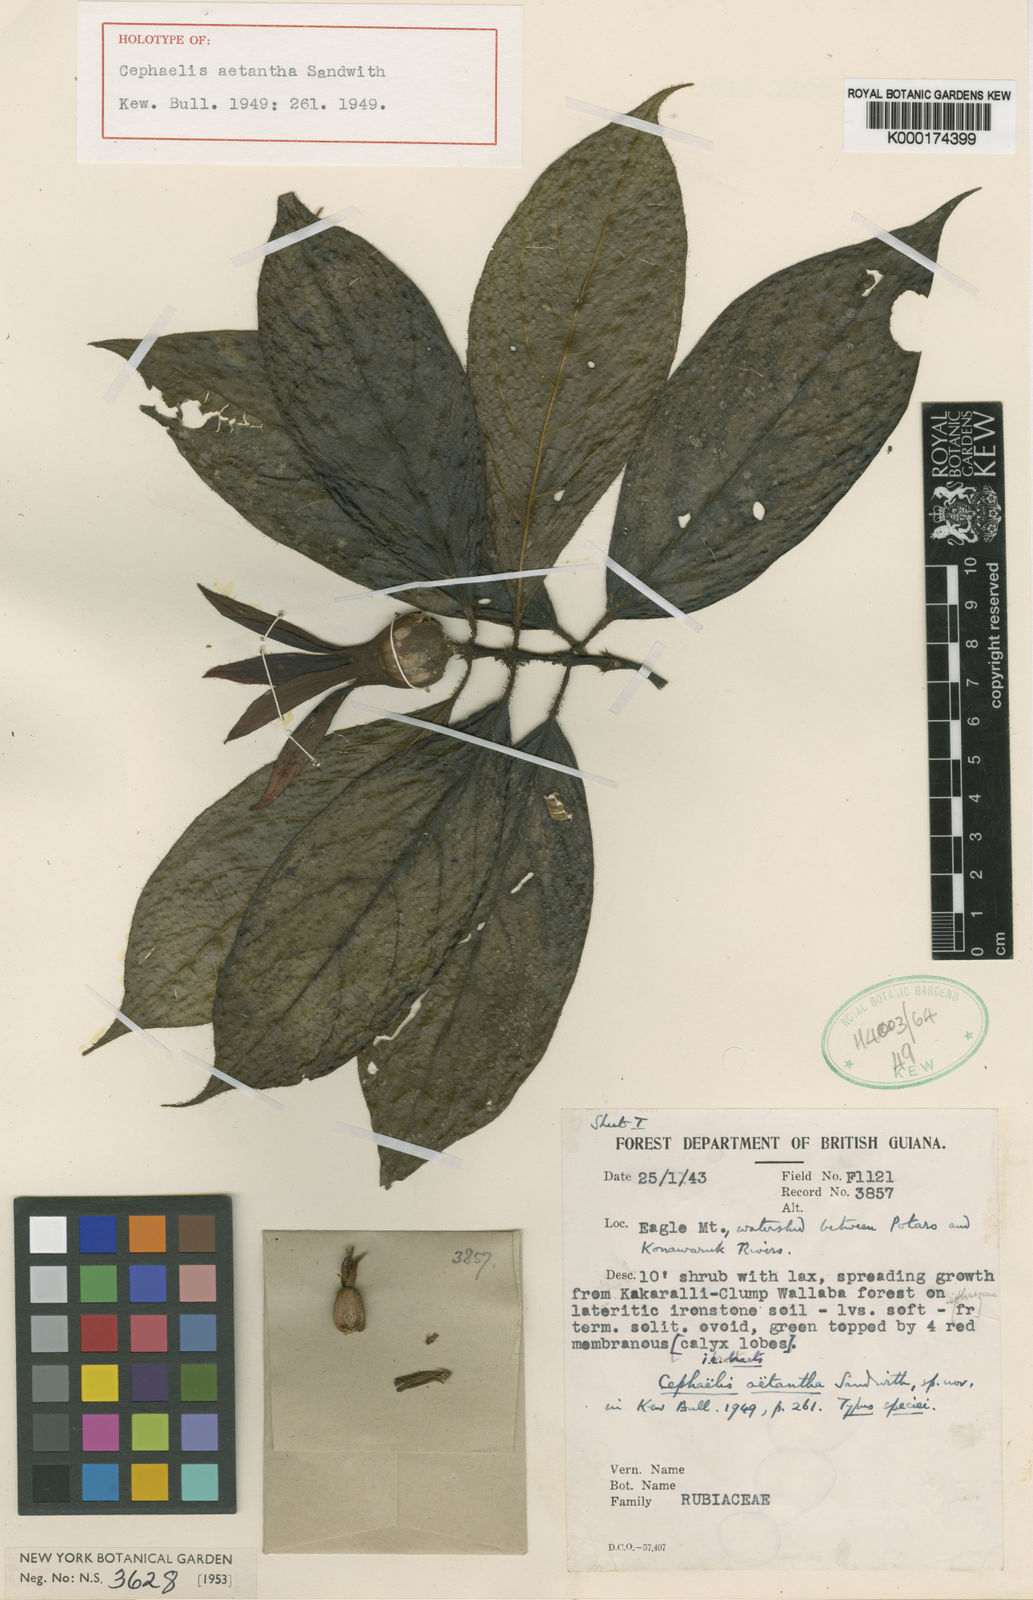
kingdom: Plantae
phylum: Tracheophyta
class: Magnoliopsida
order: Gentianales
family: Rubiaceae
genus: Palicourea
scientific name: Palicourea aetantha
